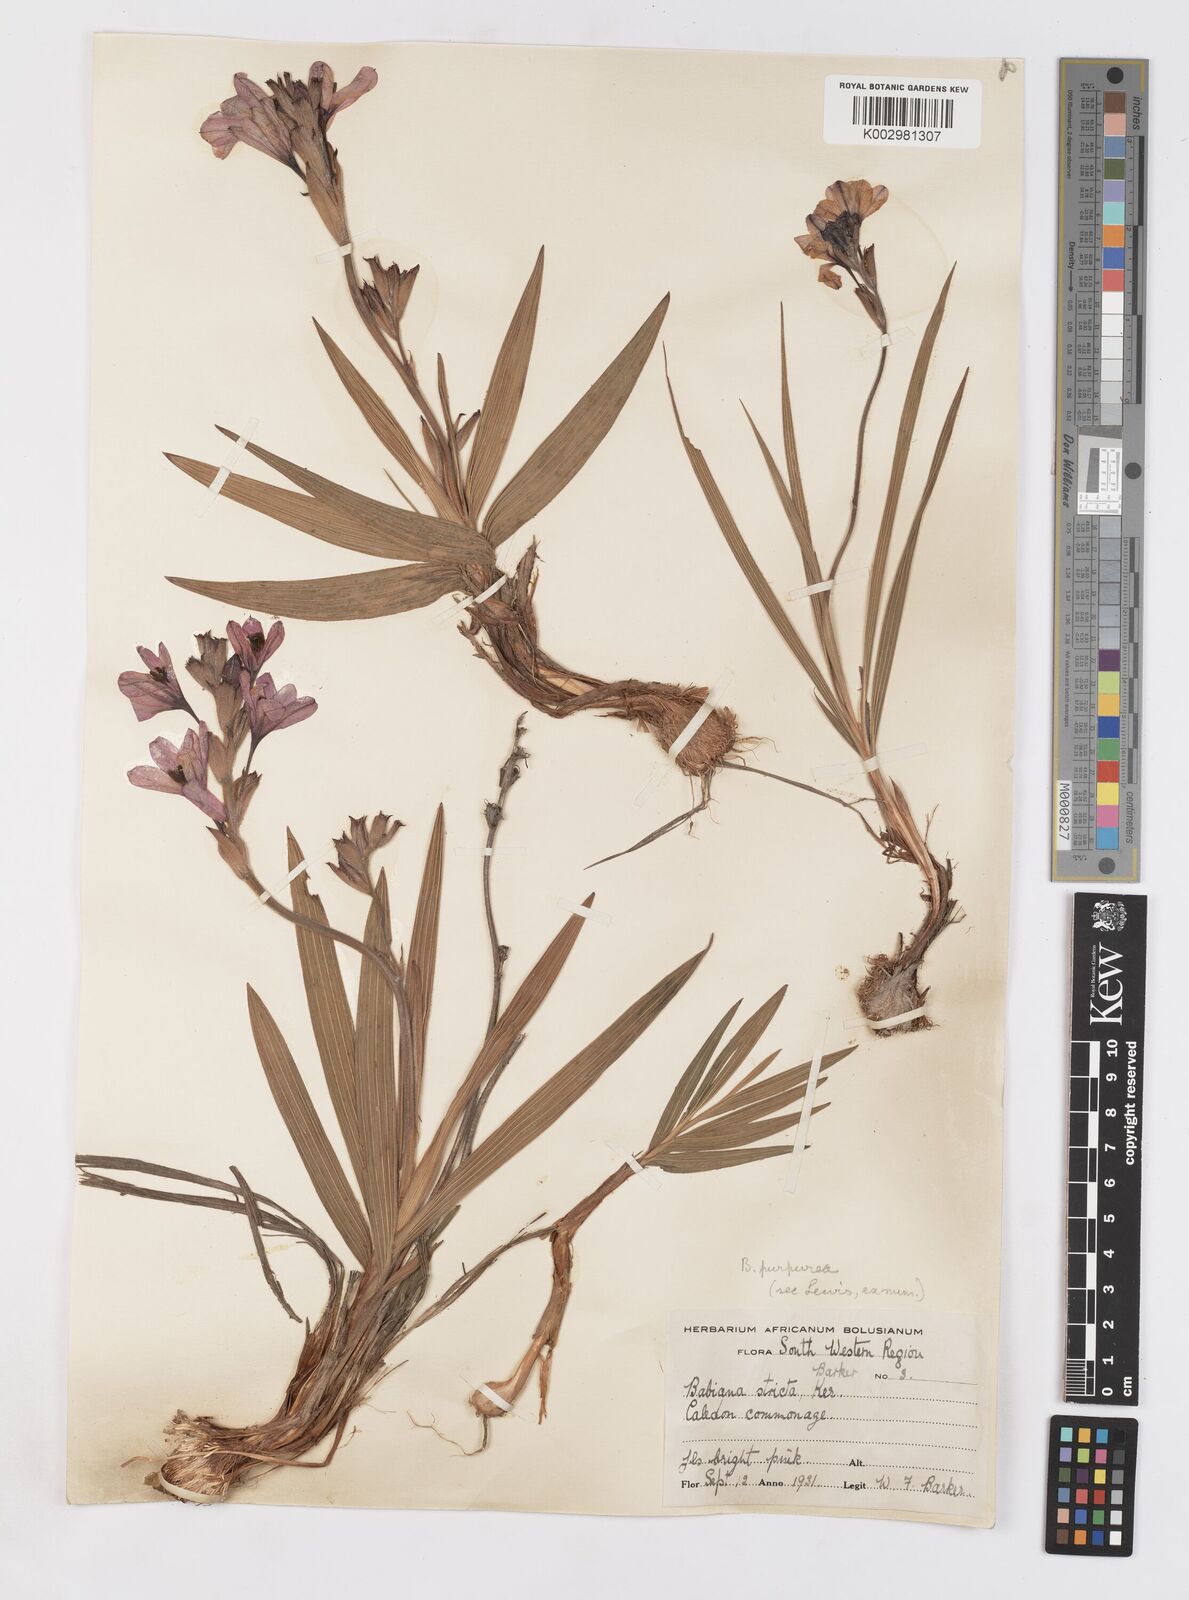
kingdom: Plantae
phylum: Tracheophyta
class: Liliopsida
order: Asparagales
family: Iridaceae
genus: Babiana
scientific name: Babiana purpurea
